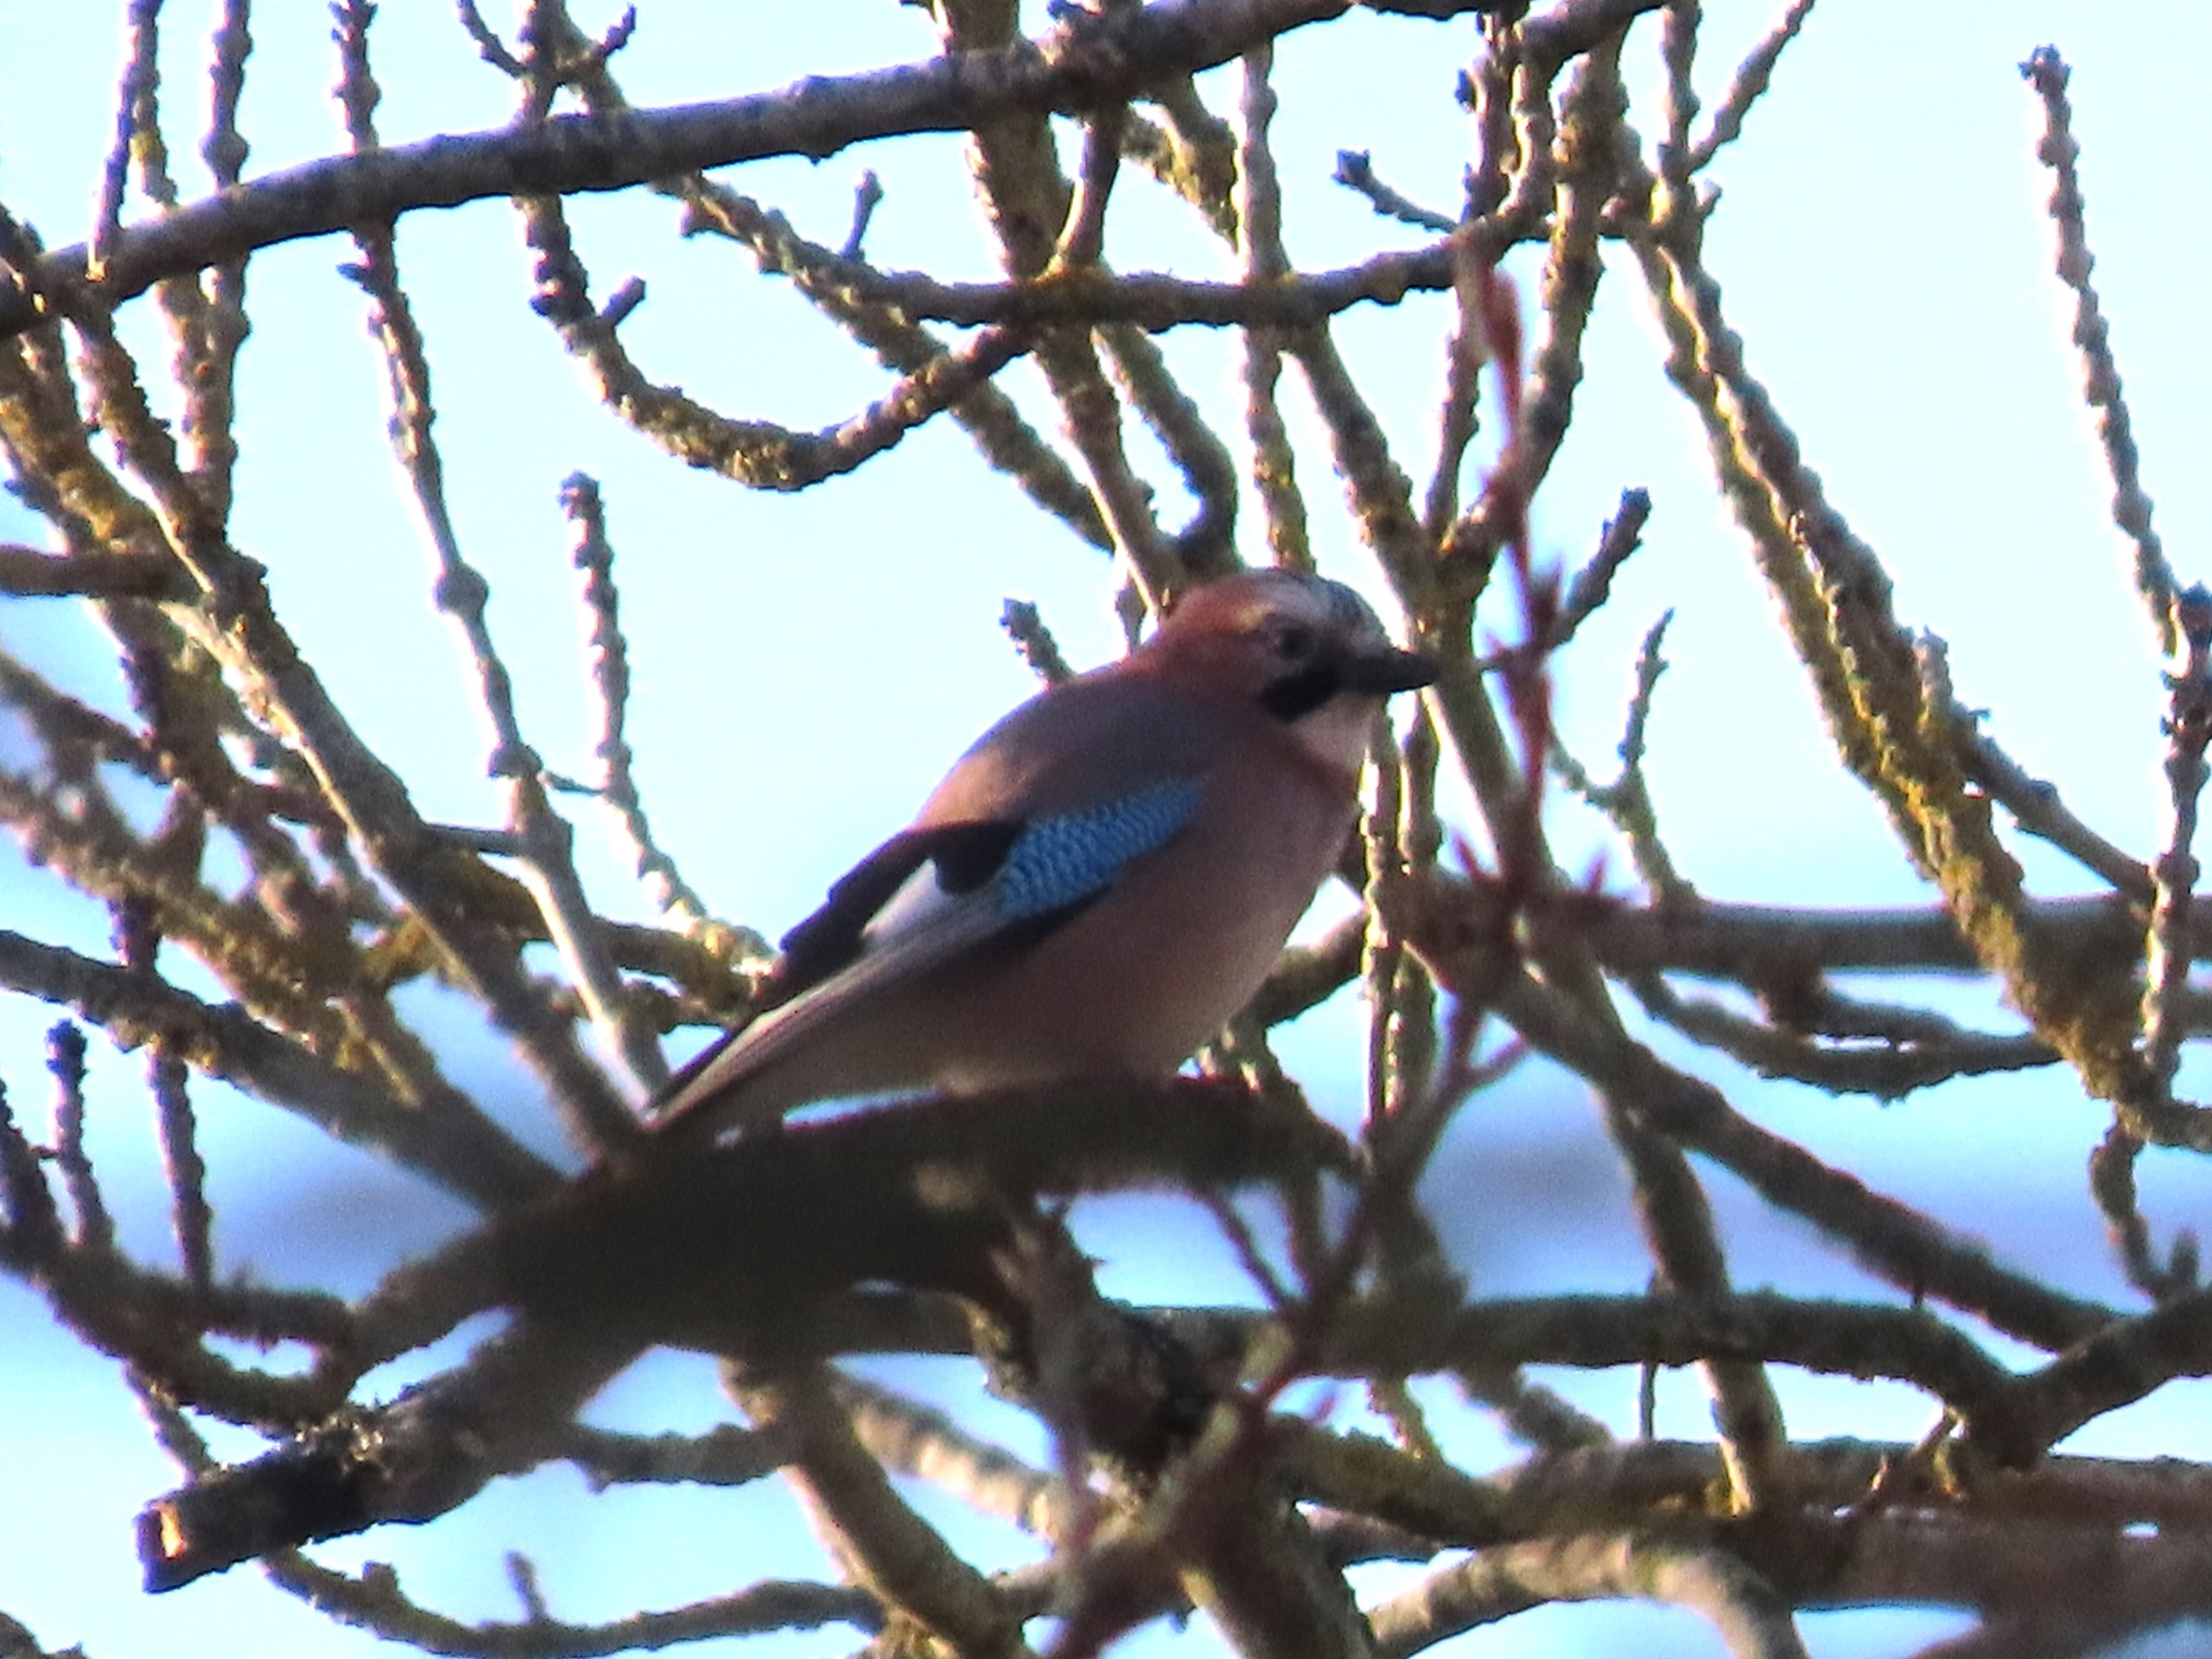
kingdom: Animalia
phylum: Chordata
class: Aves
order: Passeriformes
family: Corvidae
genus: Garrulus
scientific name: Garrulus glandarius
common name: Skovskade
